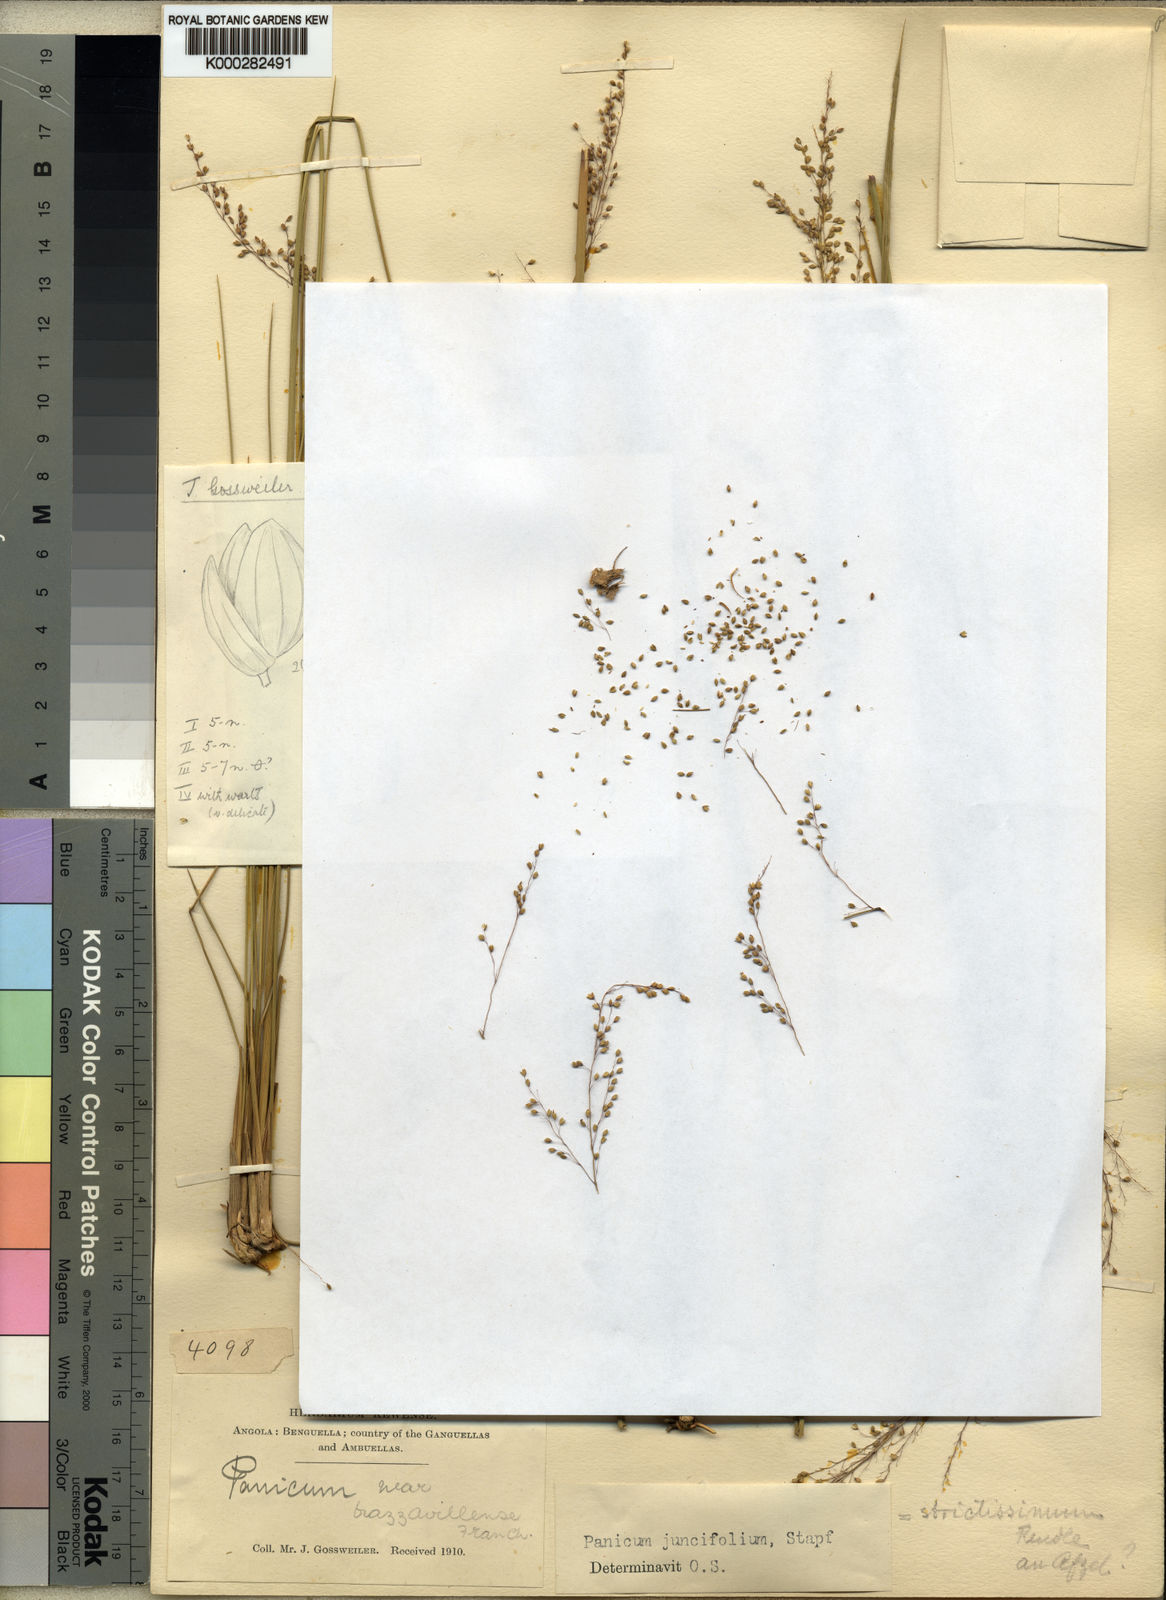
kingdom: Plantae
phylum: Tracheophyta
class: Liliopsida
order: Poales
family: Poaceae
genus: Trichanthecium
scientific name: Trichanthecium natalense
